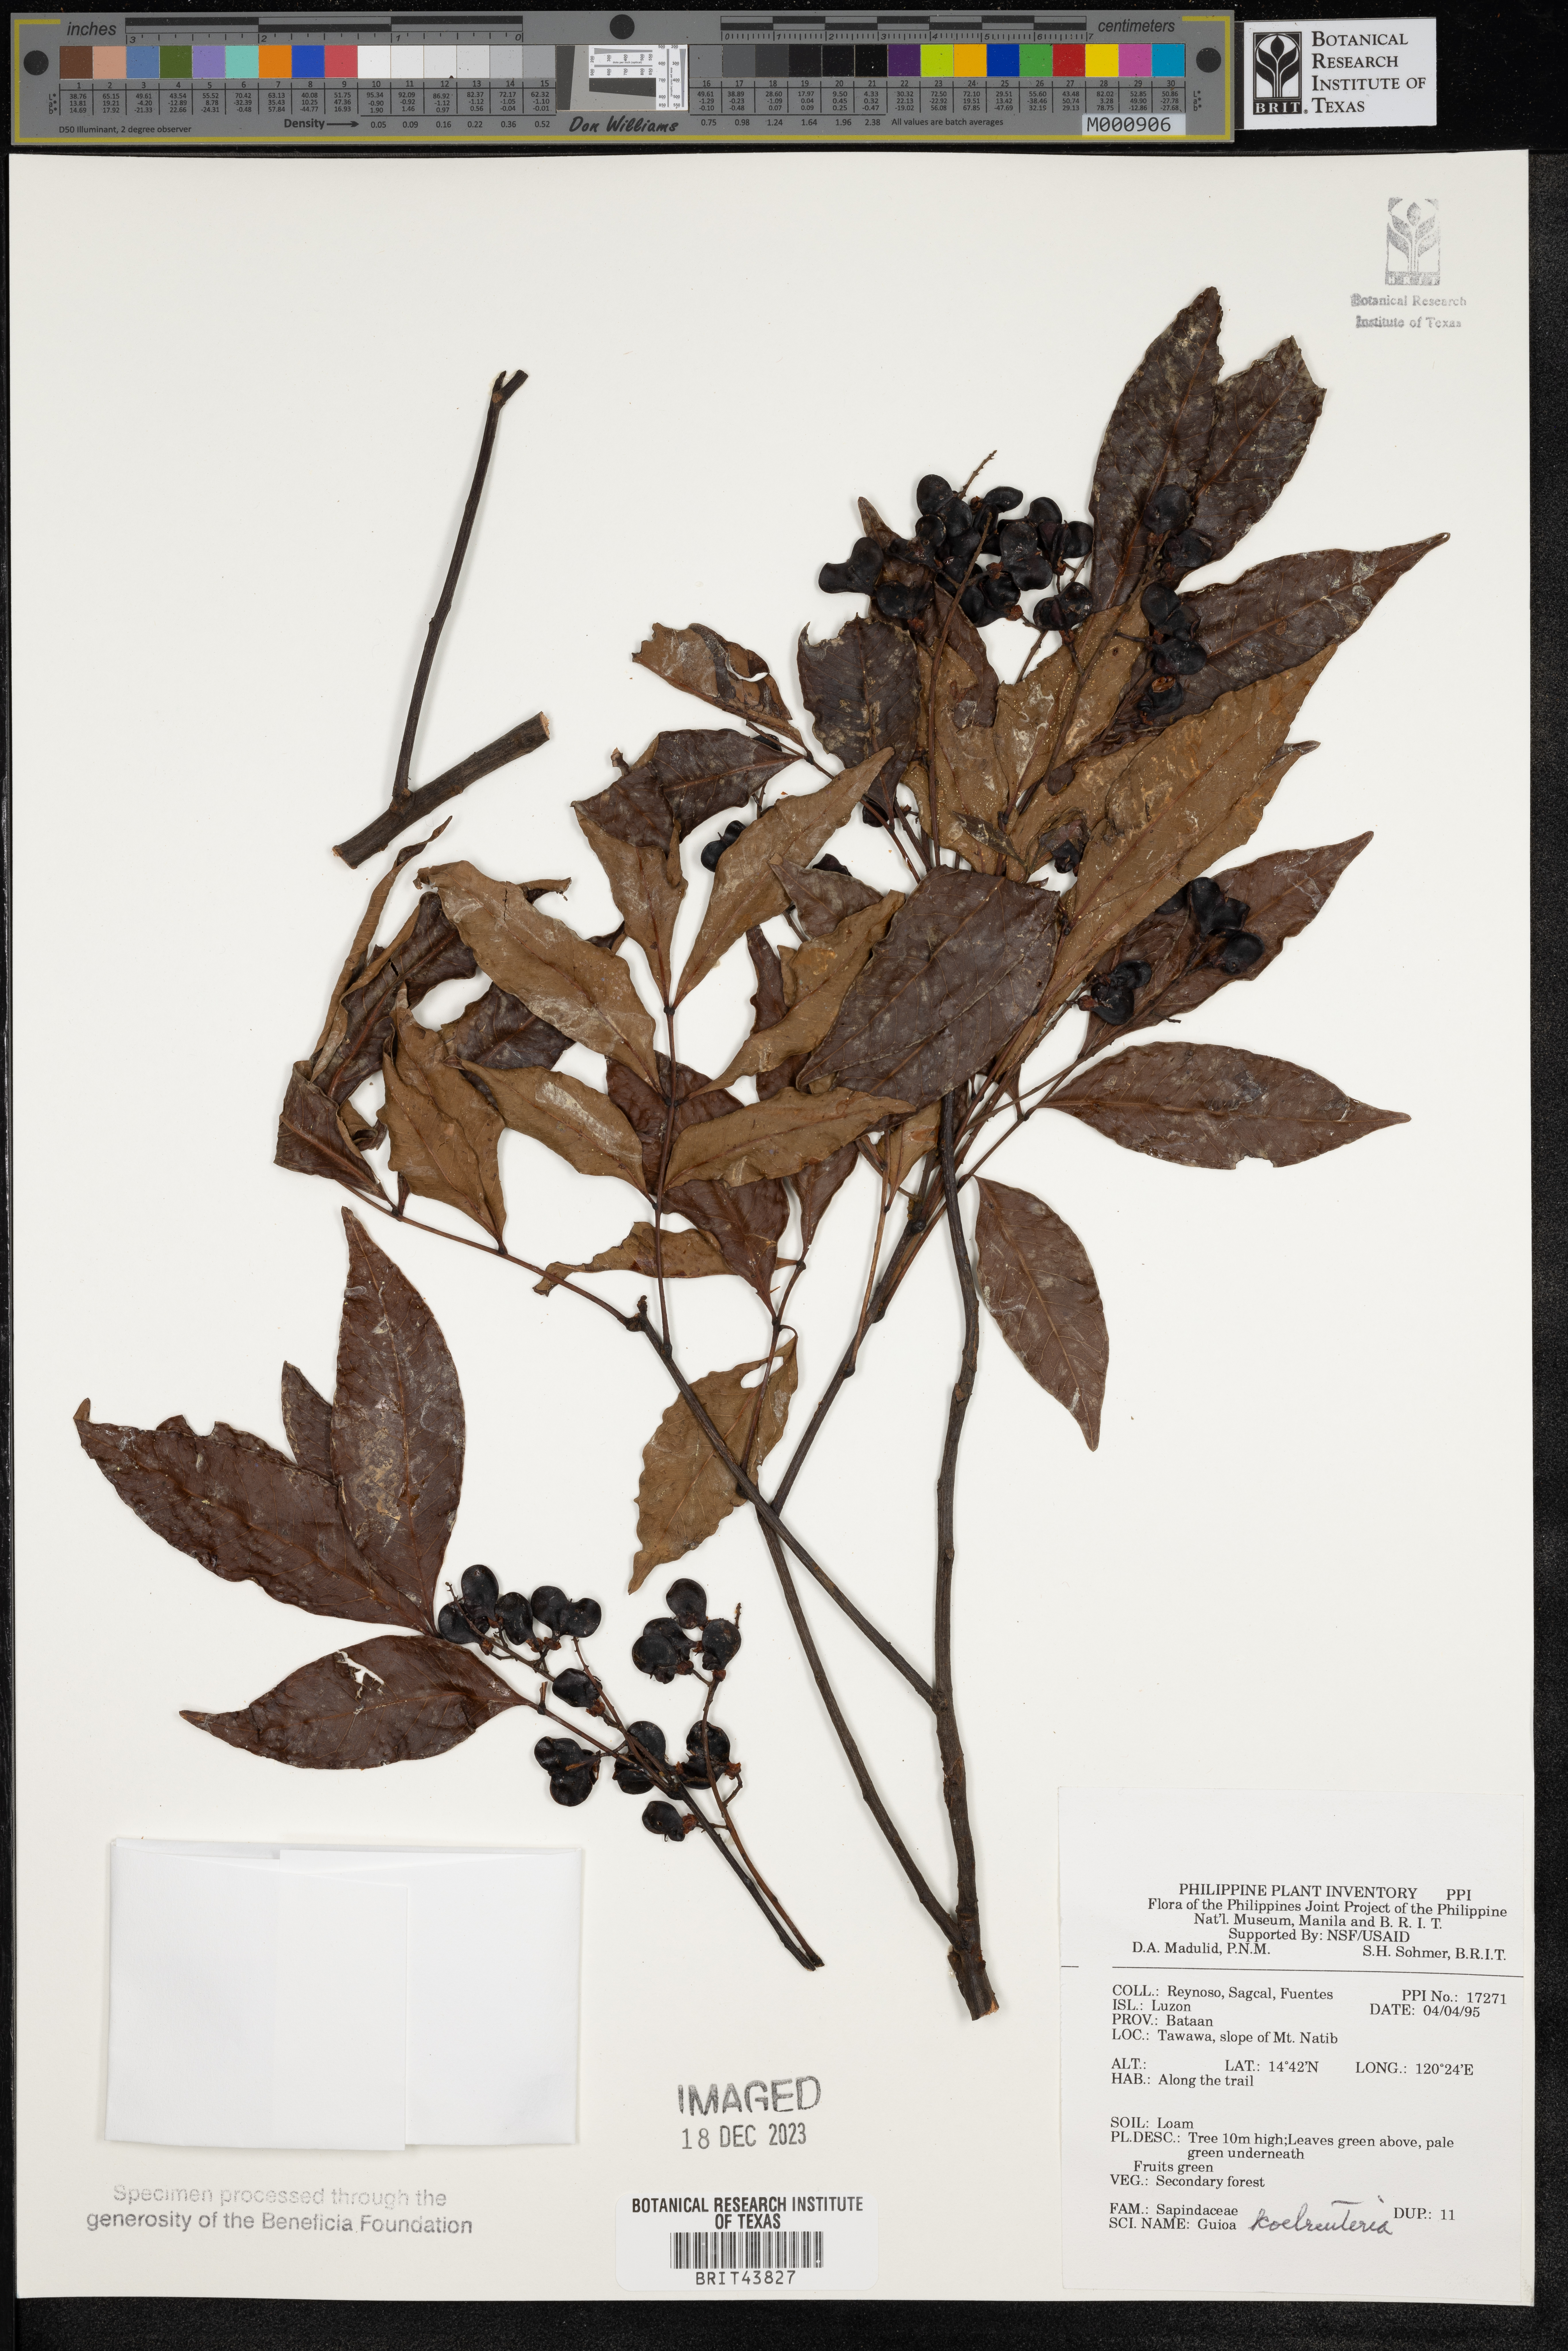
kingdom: Plantae
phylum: Tracheophyta
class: Magnoliopsida
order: Sapindales
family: Sapindaceae
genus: Guioa
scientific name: Guioa koelreuteria
